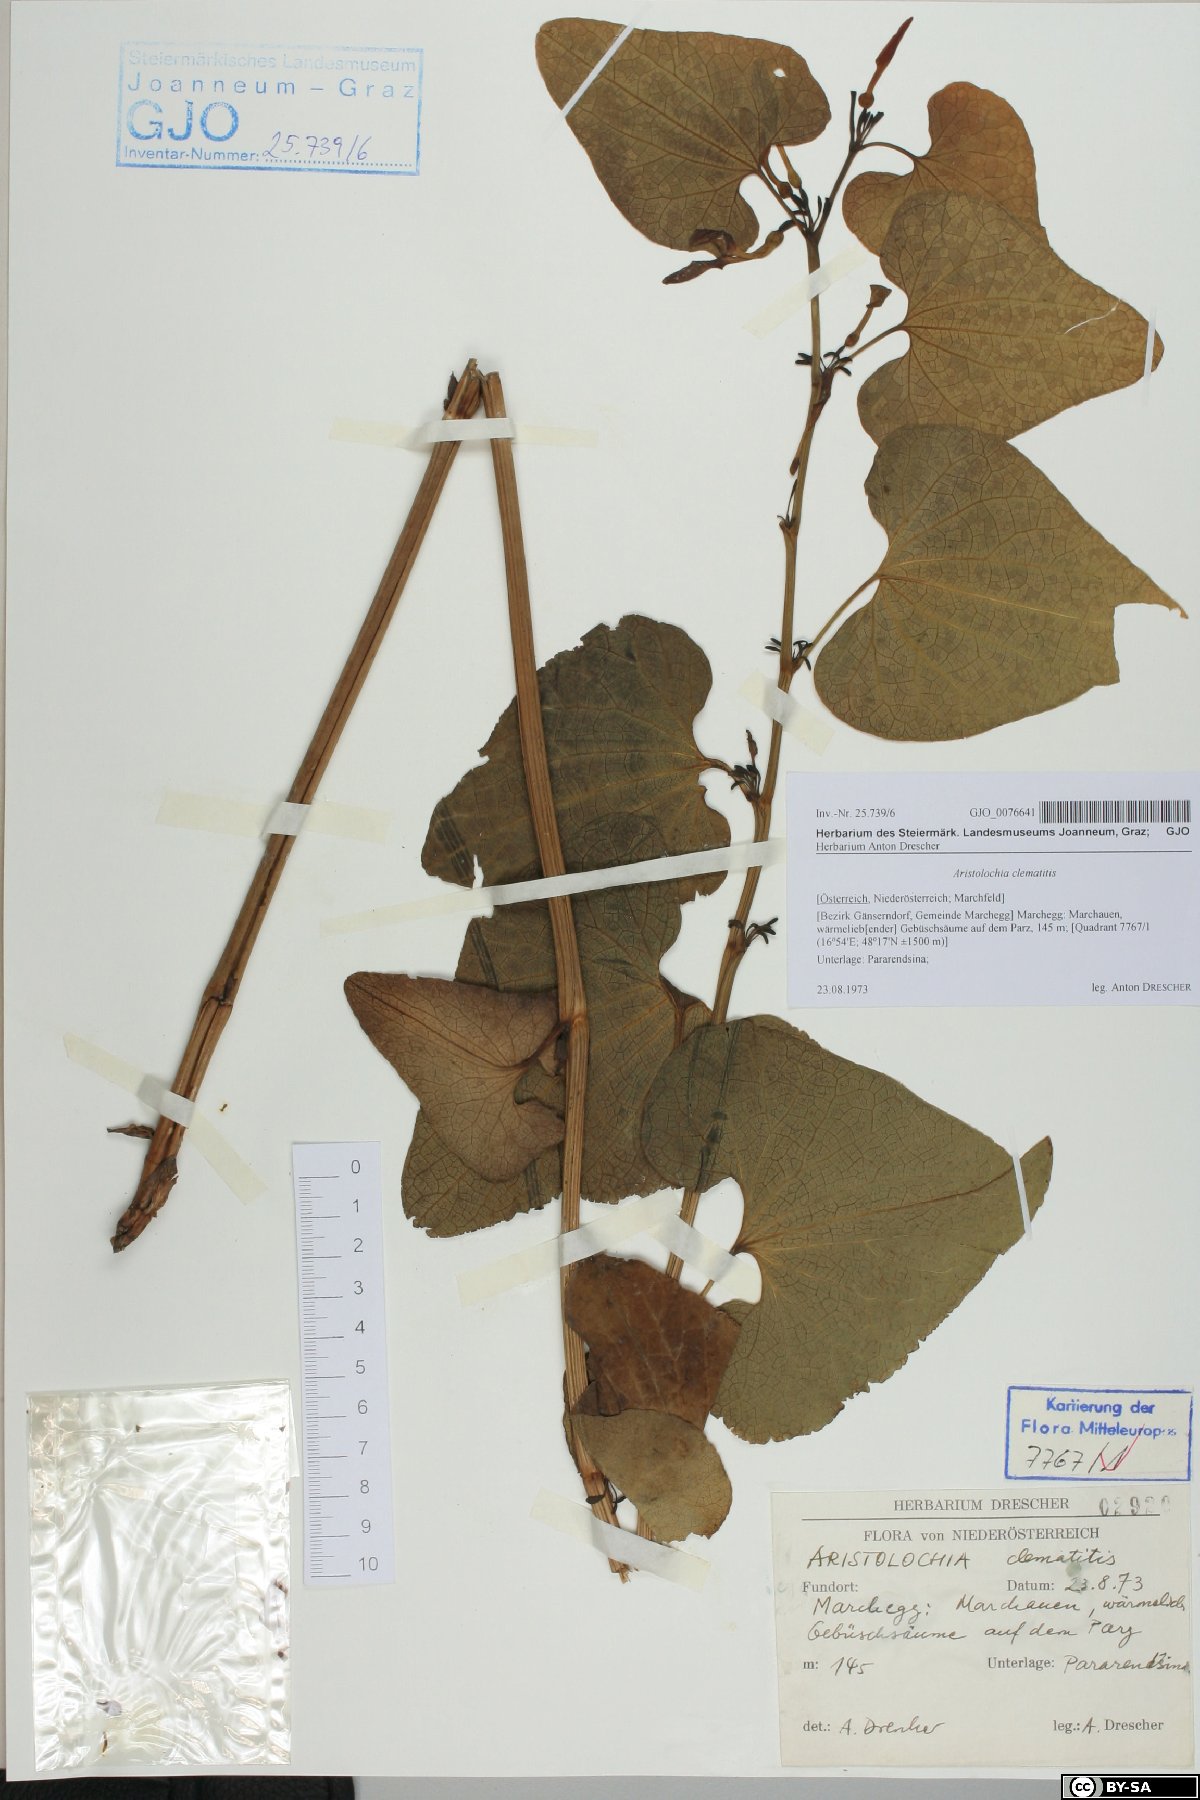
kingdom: Plantae
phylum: Tracheophyta
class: Magnoliopsida
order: Piperales
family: Aristolochiaceae
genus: Aristolochia
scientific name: Aristolochia clematitis
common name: Birthwort
